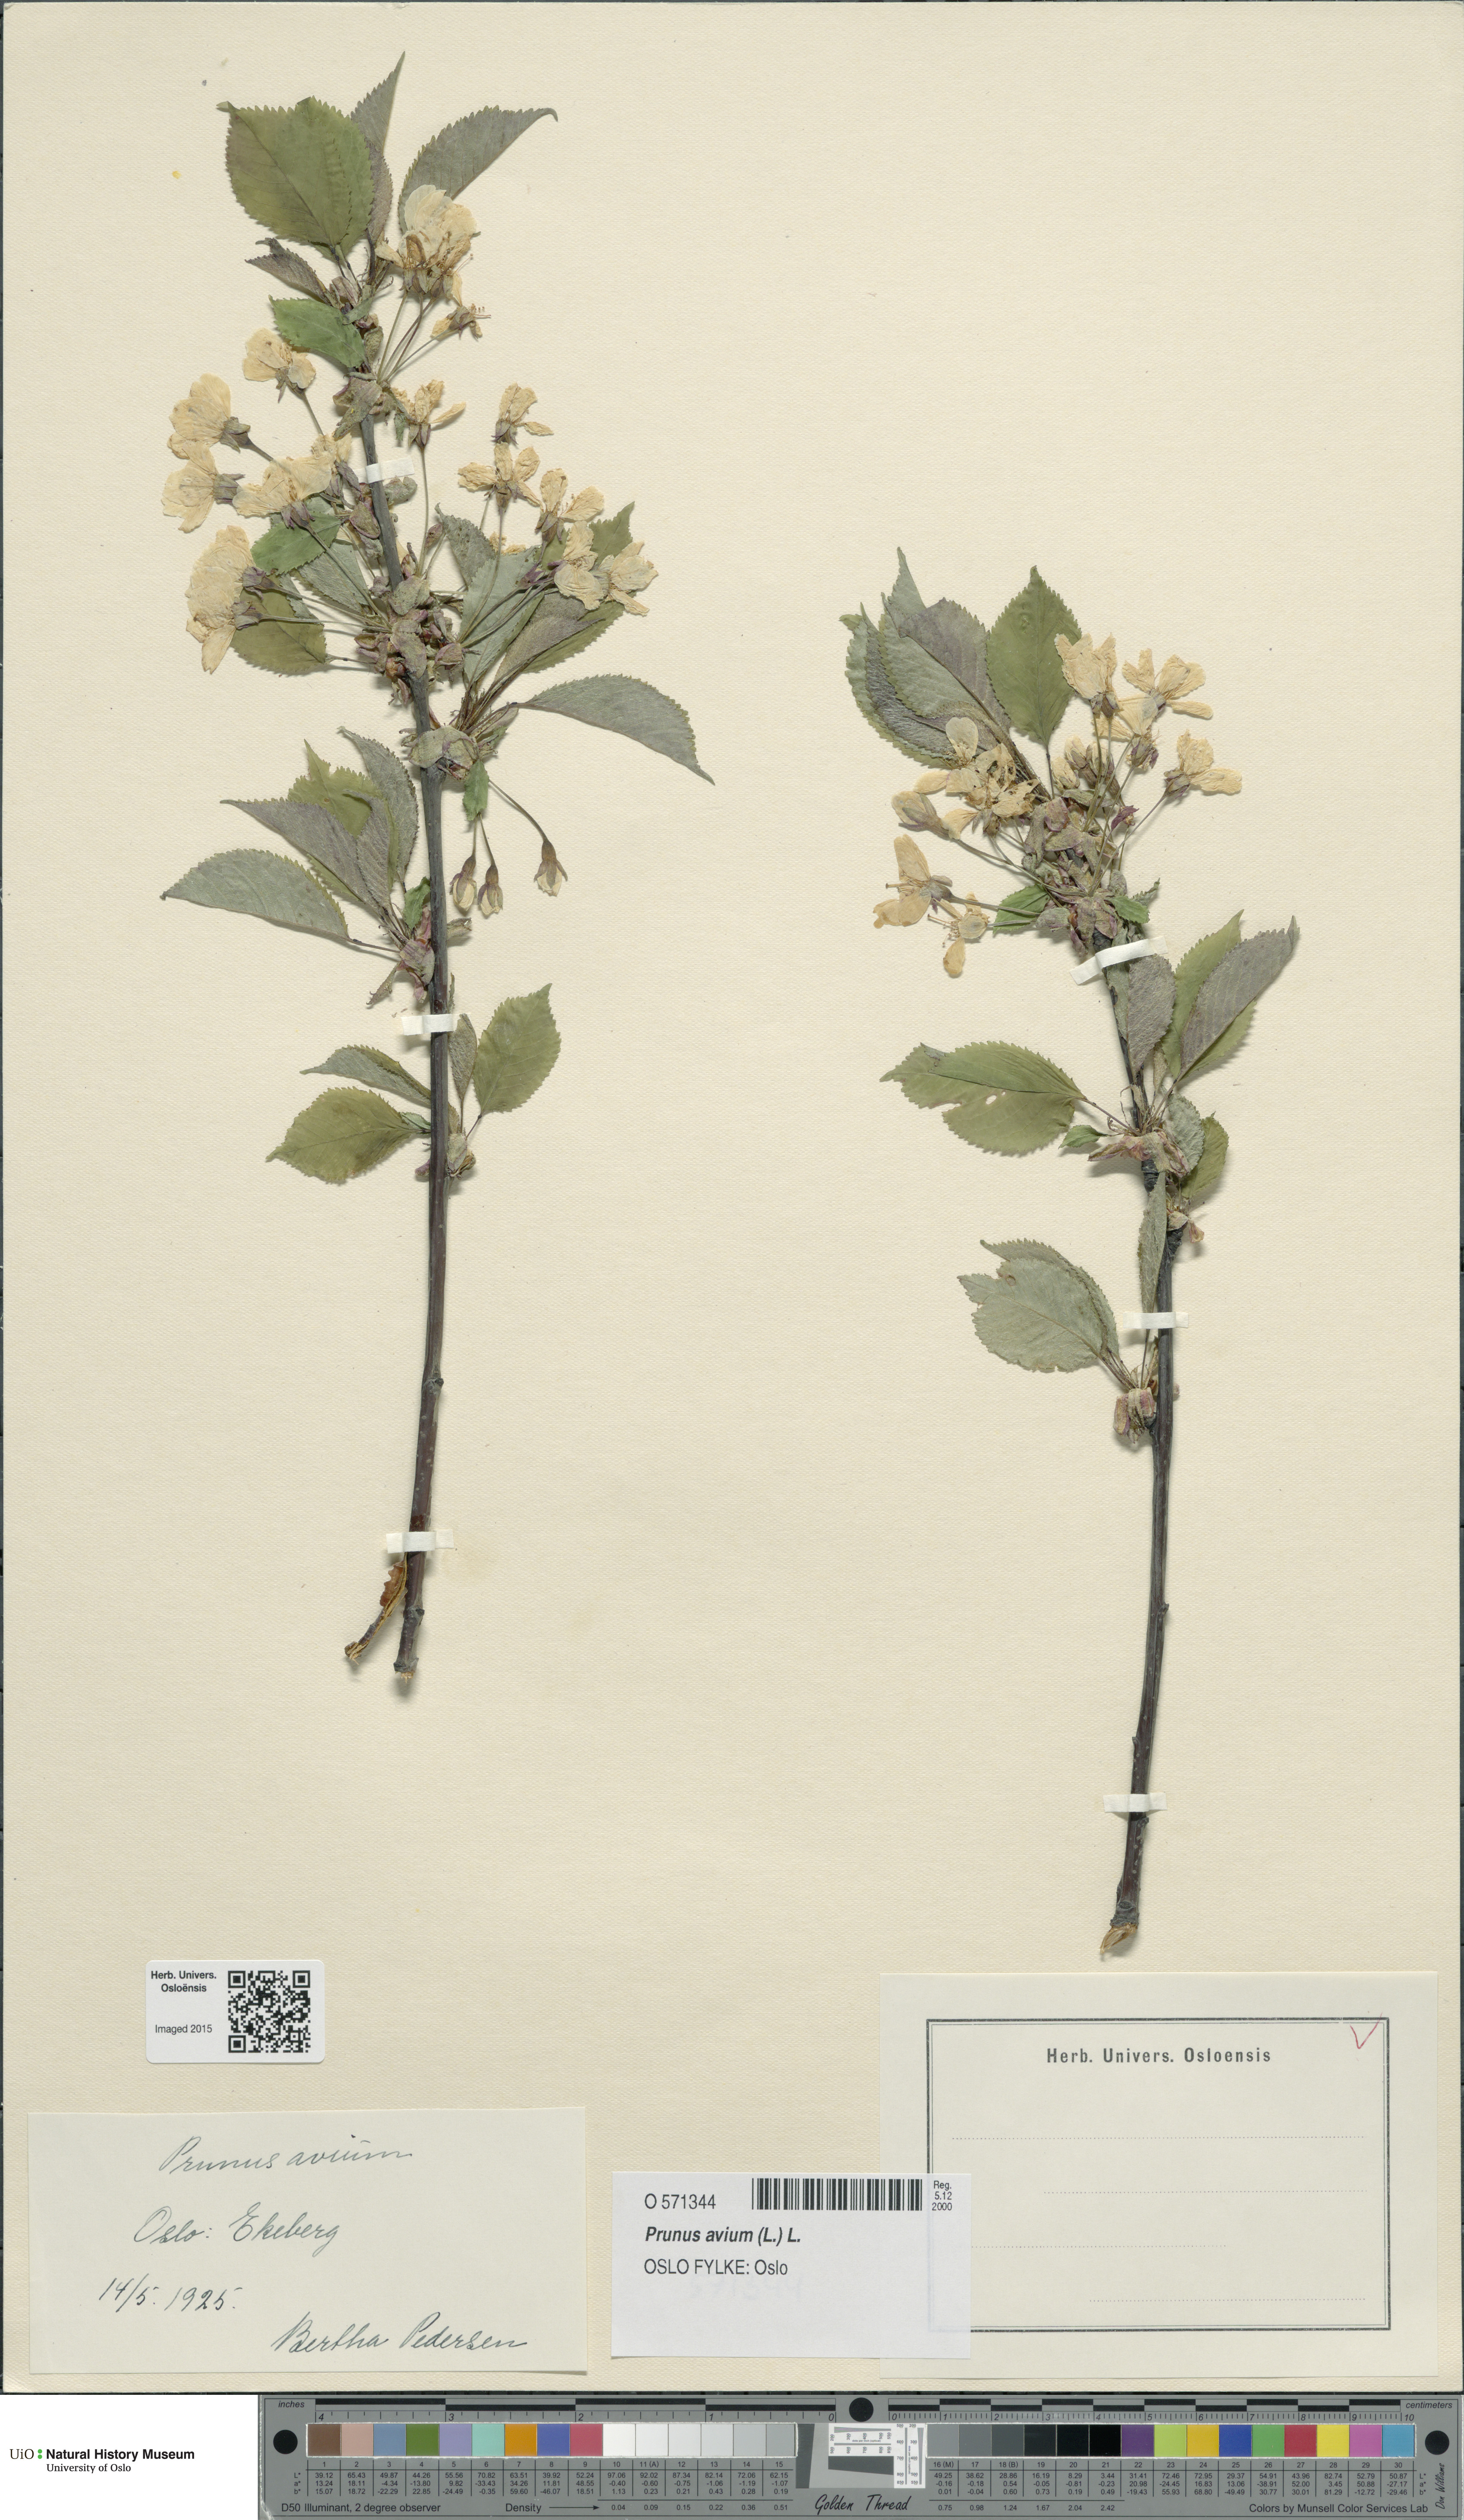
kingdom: Plantae
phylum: Tracheophyta
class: Magnoliopsida
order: Rosales
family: Rosaceae
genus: Prunus
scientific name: Prunus avium
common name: Sweet cherry
